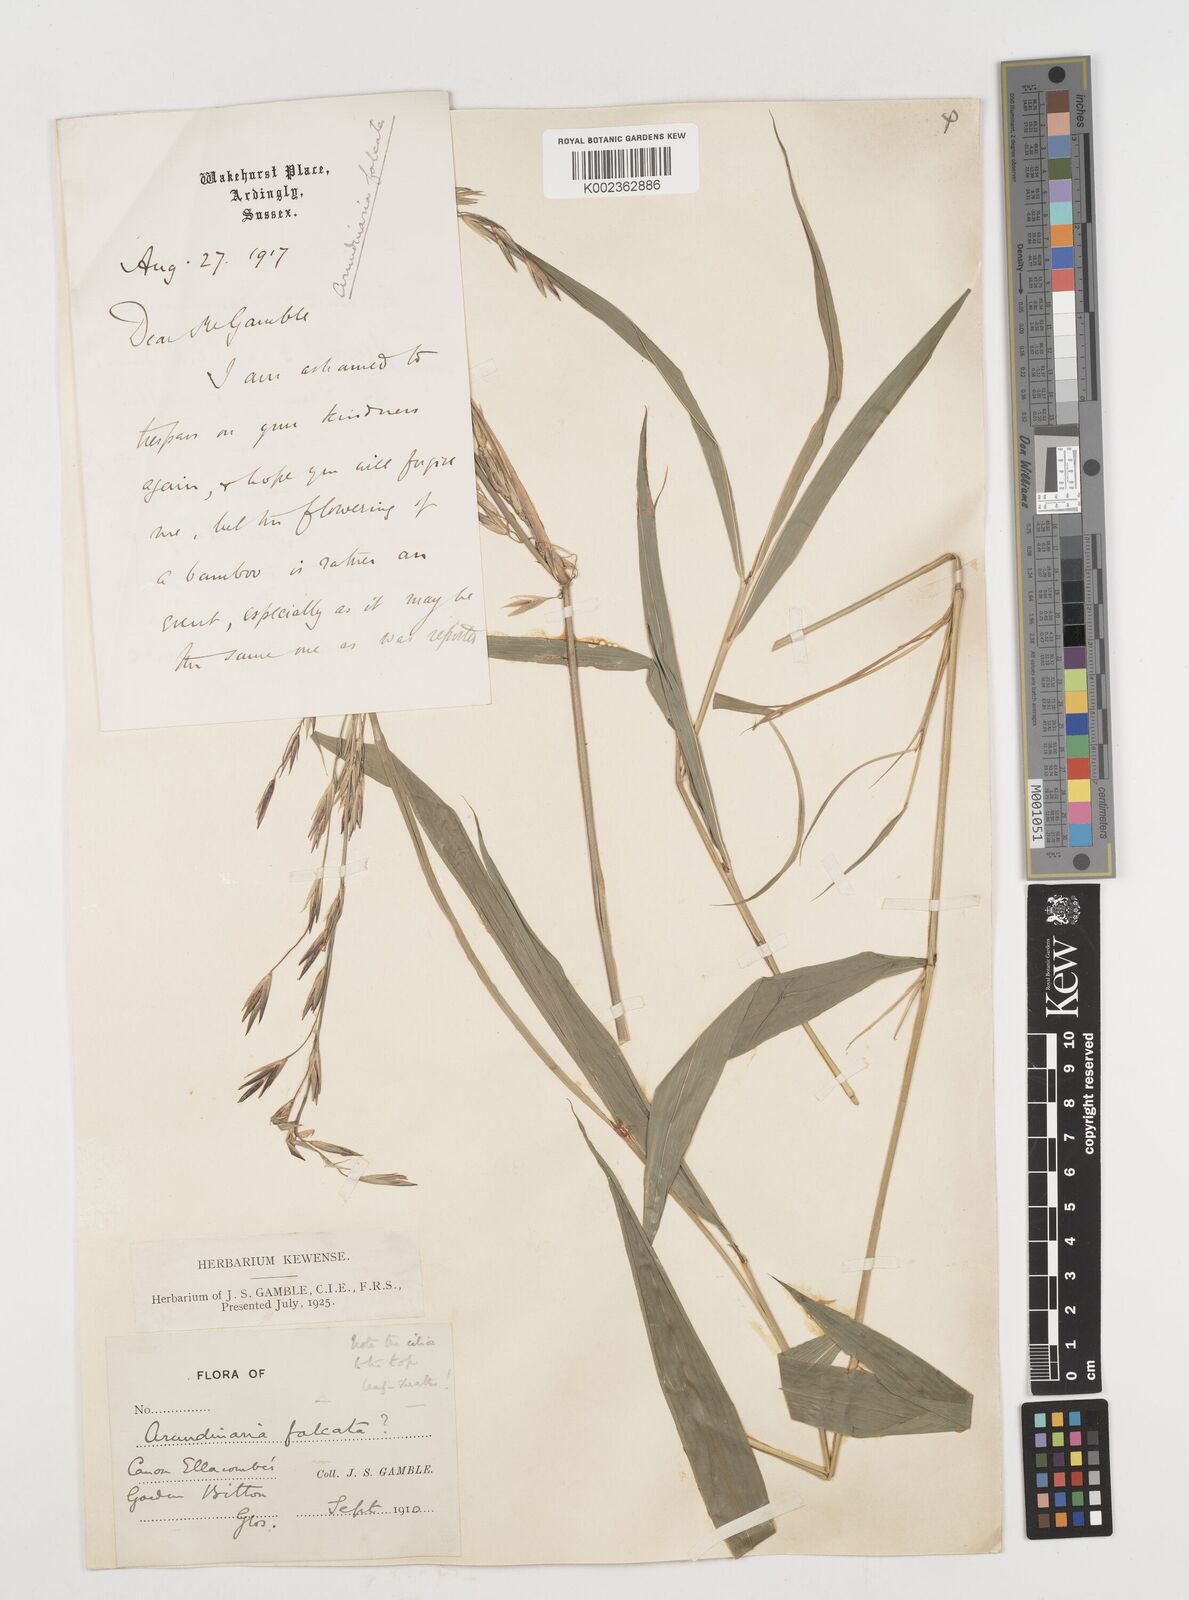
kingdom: Plantae
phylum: Tracheophyta
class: Liliopsida
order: Poales
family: Poaceae
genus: Drepanostachyum
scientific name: Drepanostachyum falcatum
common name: Himalayan bamboo
